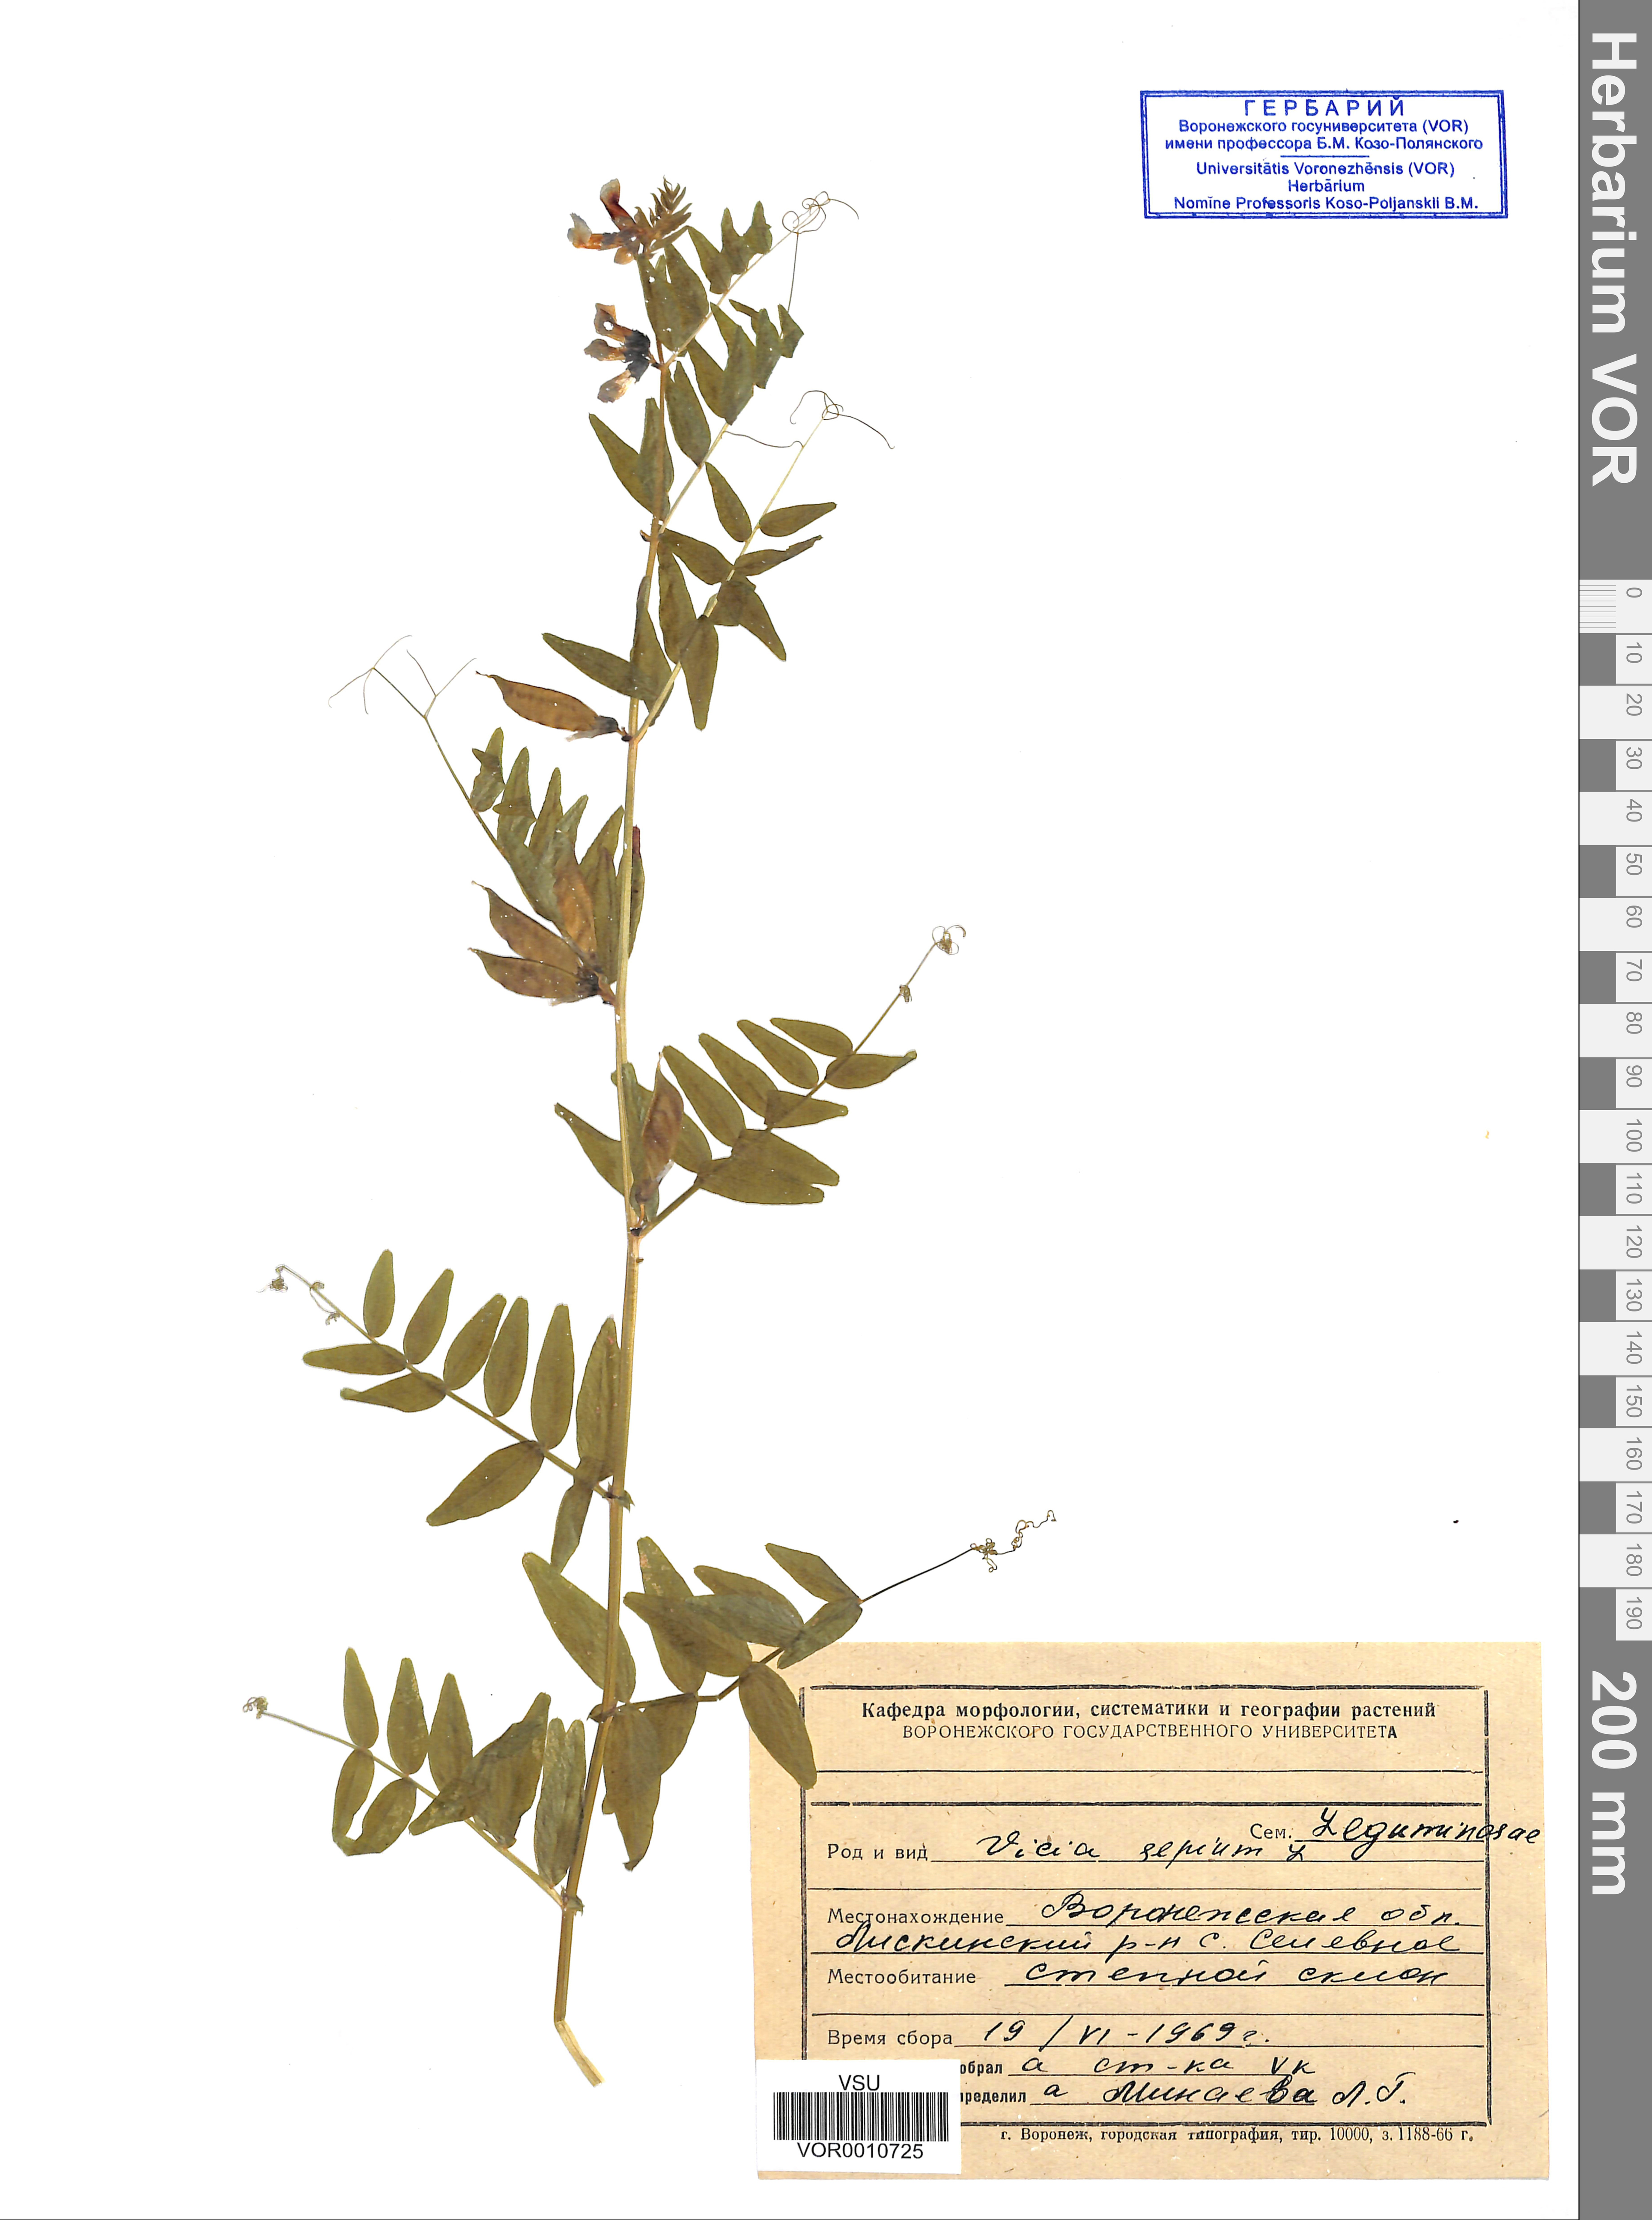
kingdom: Plantae
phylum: Tracheophyta
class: Magnoliopsida
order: Fabales
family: Fabaceae
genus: Vicia
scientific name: Vicia sepium
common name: Bush vetch
